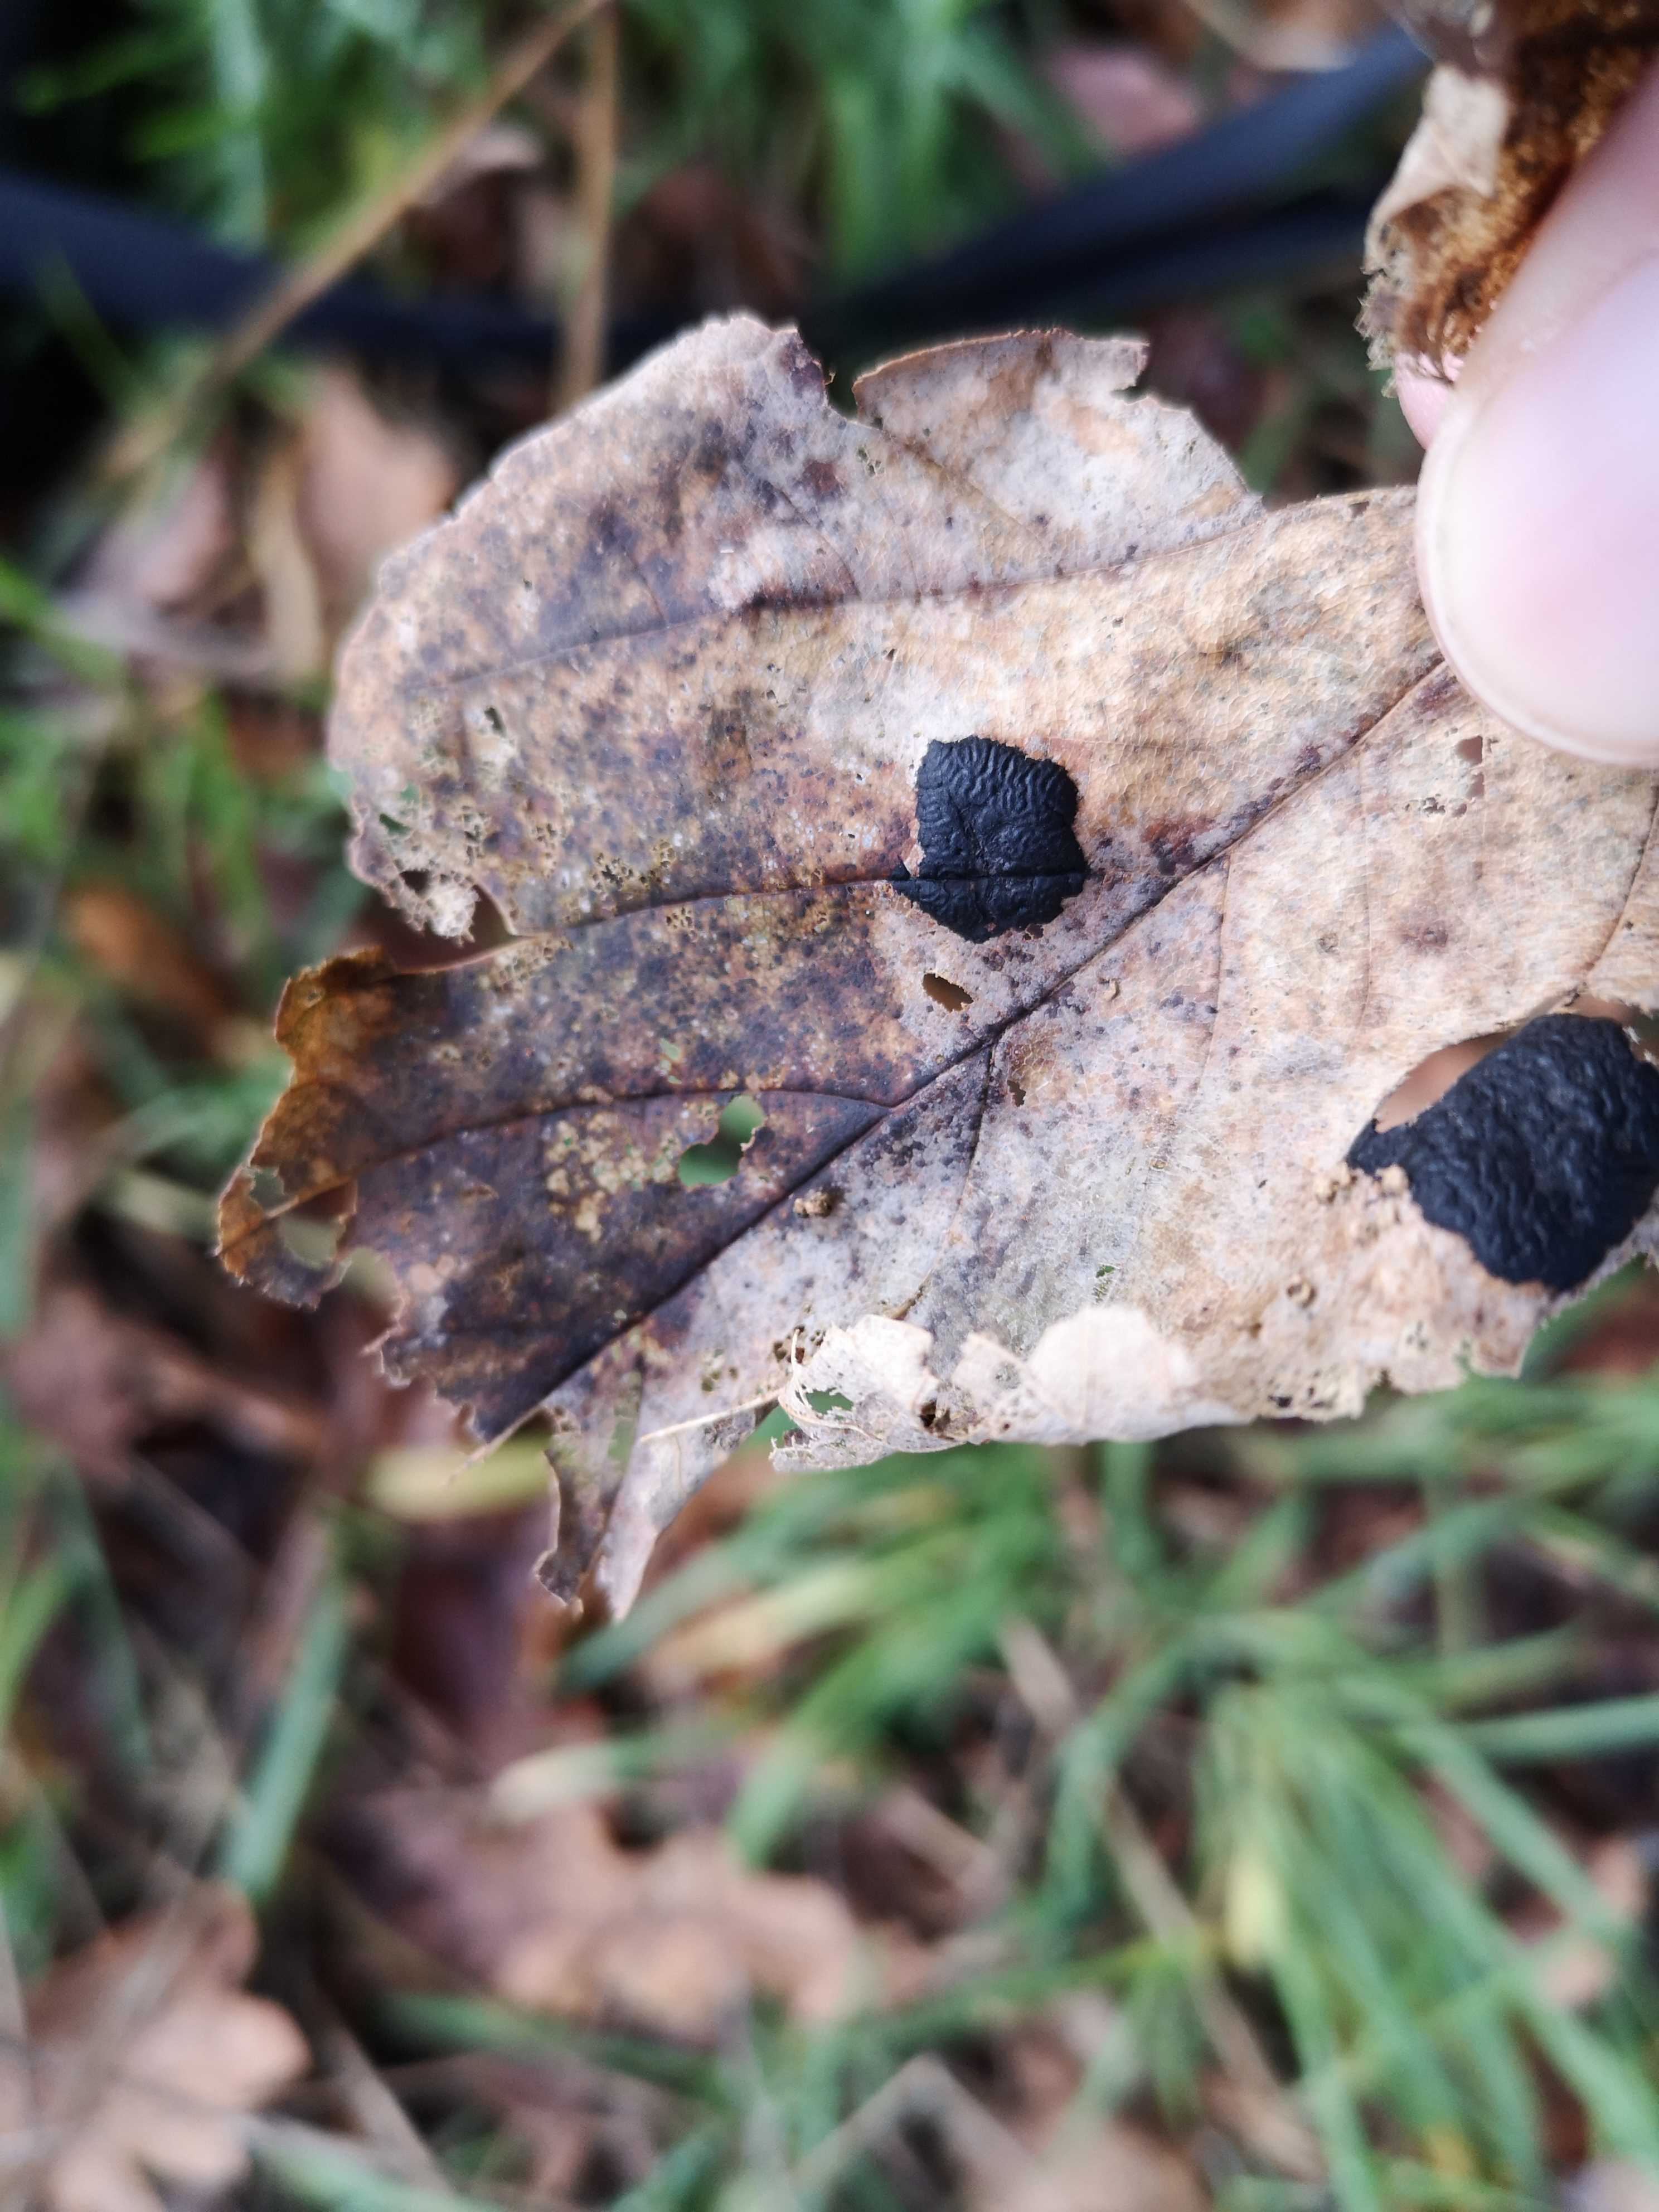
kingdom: Fungi
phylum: Ascomycota
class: Leotiomycetes
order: Rhytismatales
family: Rhytismataceae
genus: Rhytisma
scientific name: Rhytisma acerinum
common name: ahorn-rynkeplet
